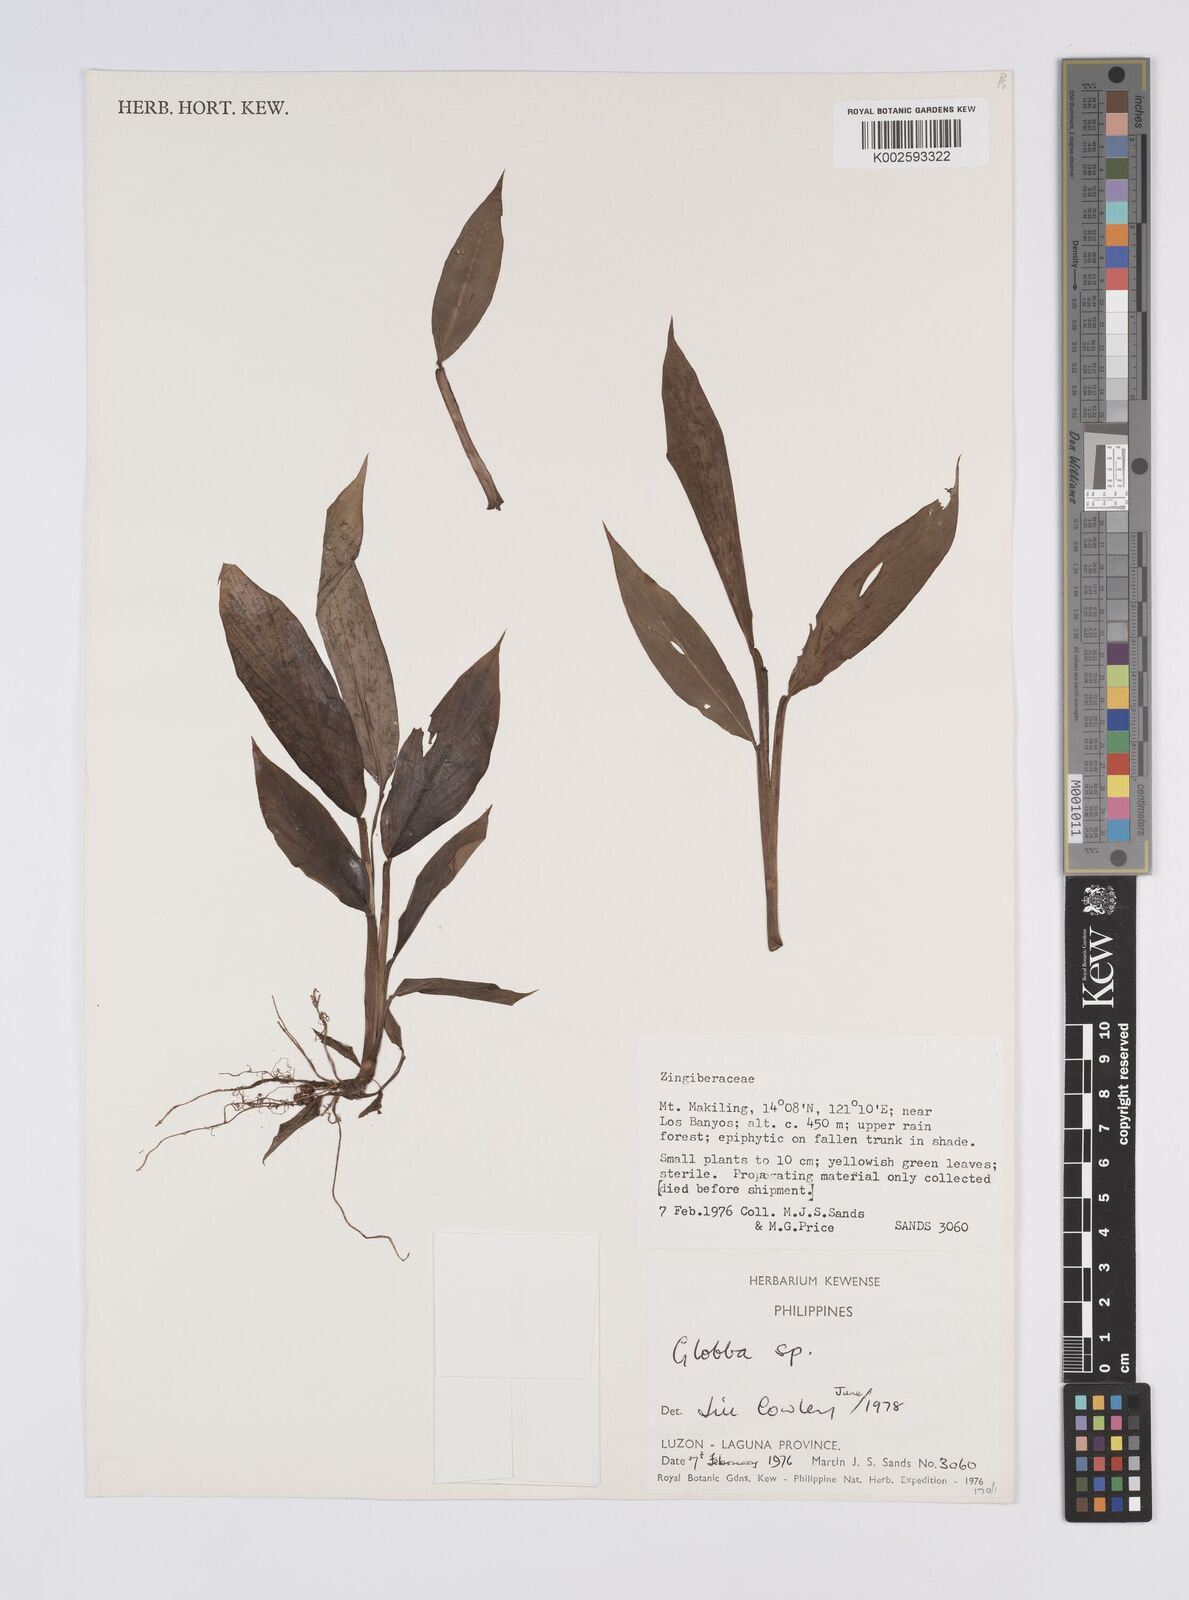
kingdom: Plantae
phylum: Tracheophyta
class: Liliopsida
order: Zingiberales
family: Zingiberaceae
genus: Globba
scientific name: Globba
